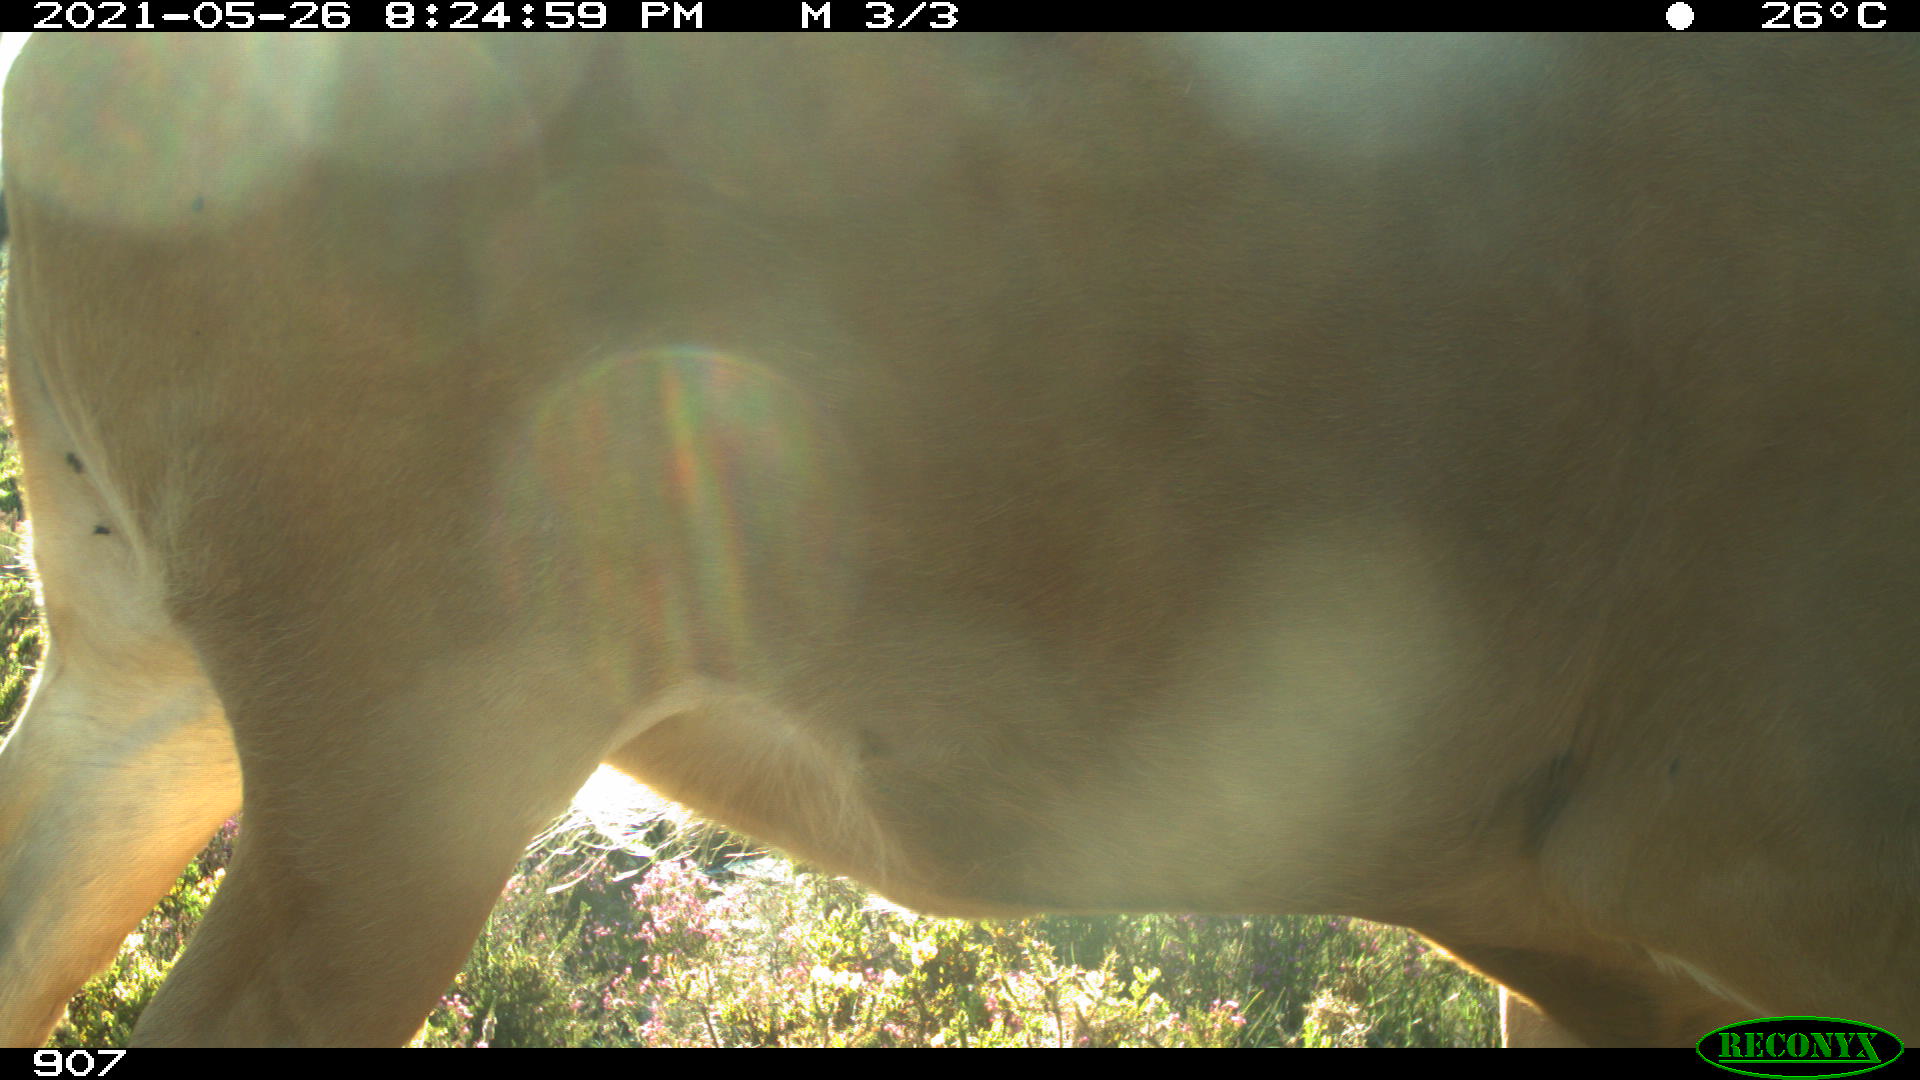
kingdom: Animalia
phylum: Chordata
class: Mammalia
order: Artiodactyla
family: Bovidae
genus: Bos
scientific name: Bos taurus
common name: Domesticated cattle
